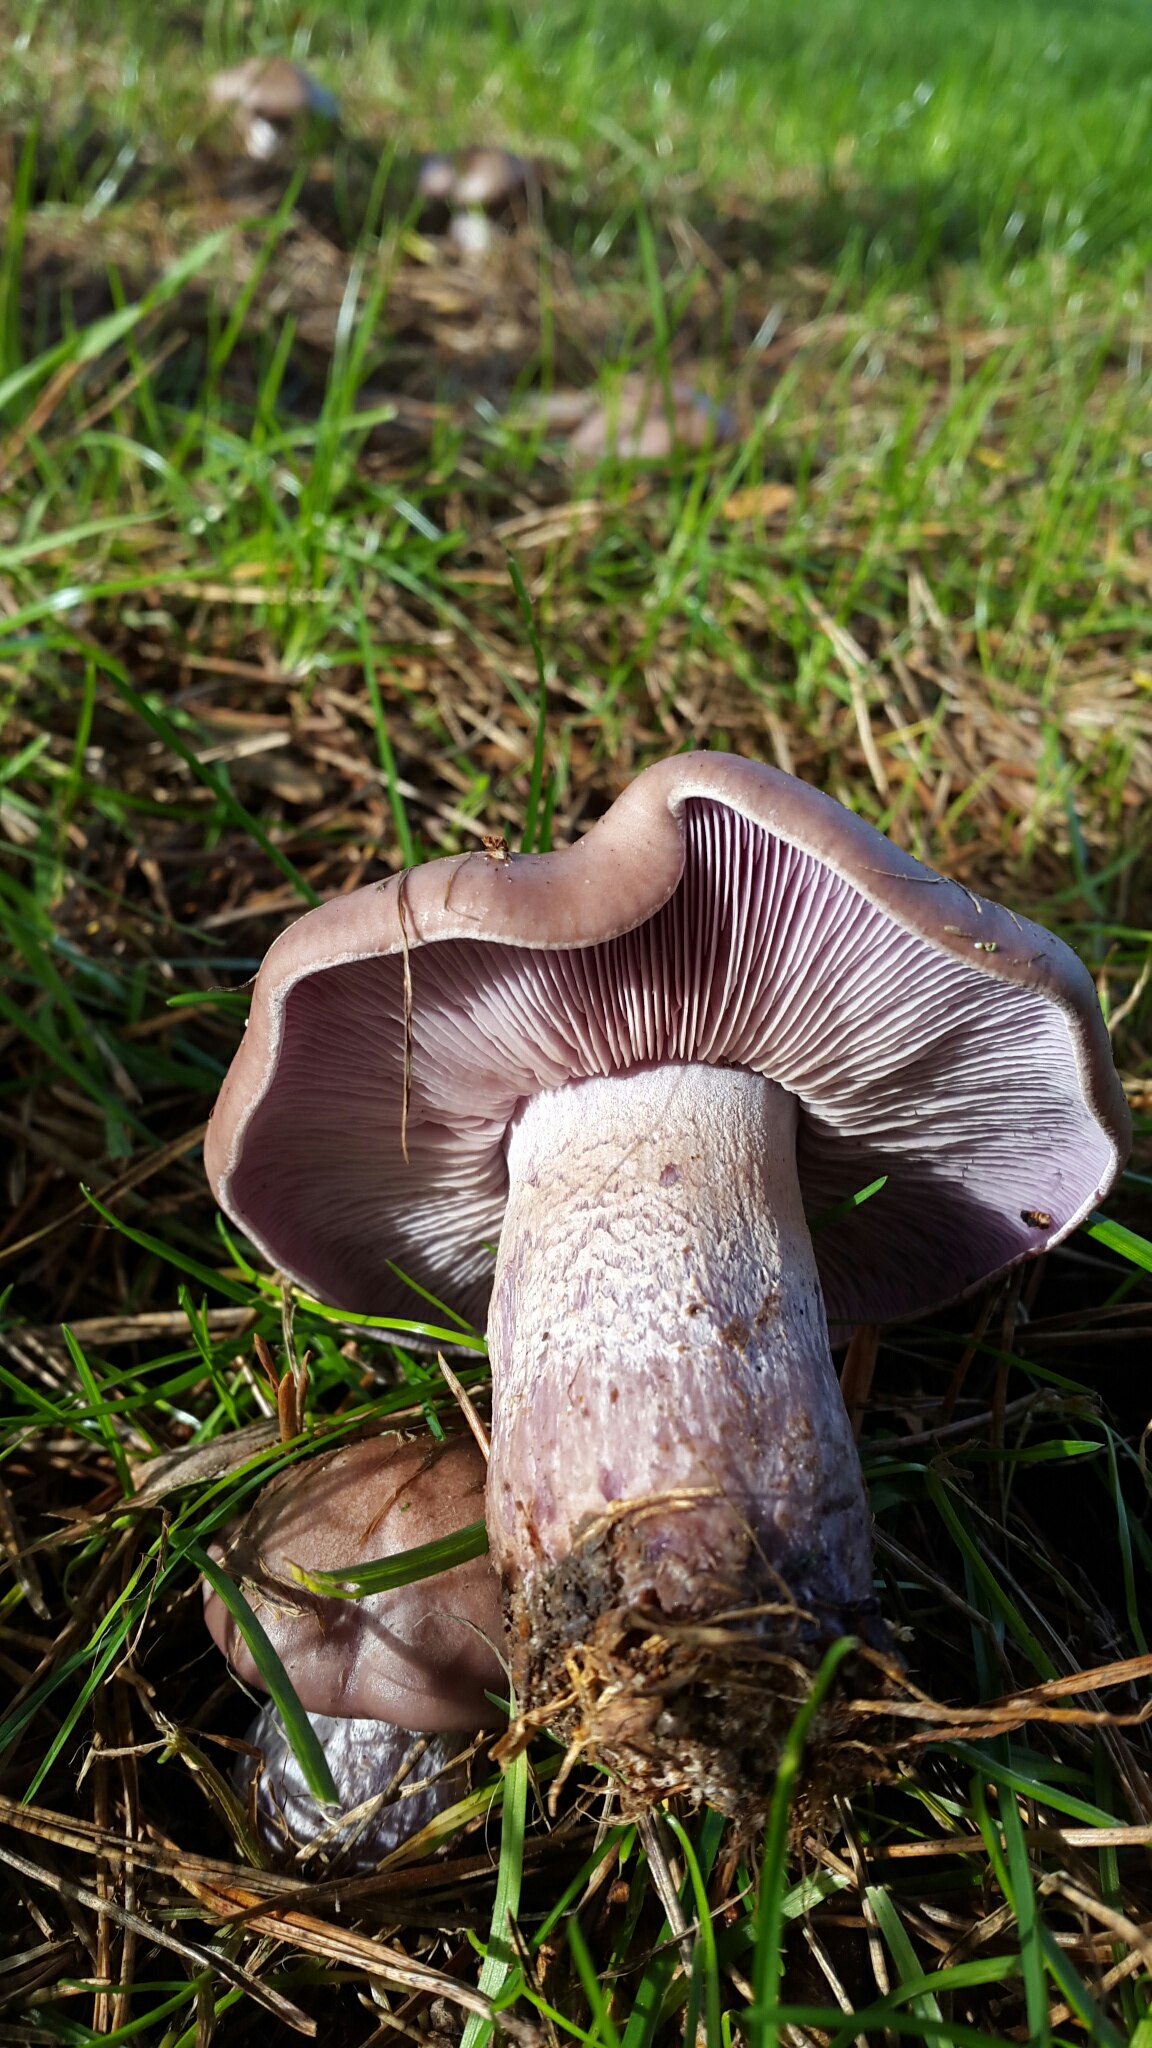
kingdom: Fungi
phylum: Basidiomycota
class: Agaricomycetes
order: Agaricales
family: Tricholomataceae
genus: Lepista
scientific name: Lepista nuda
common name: violet hekseringshat
